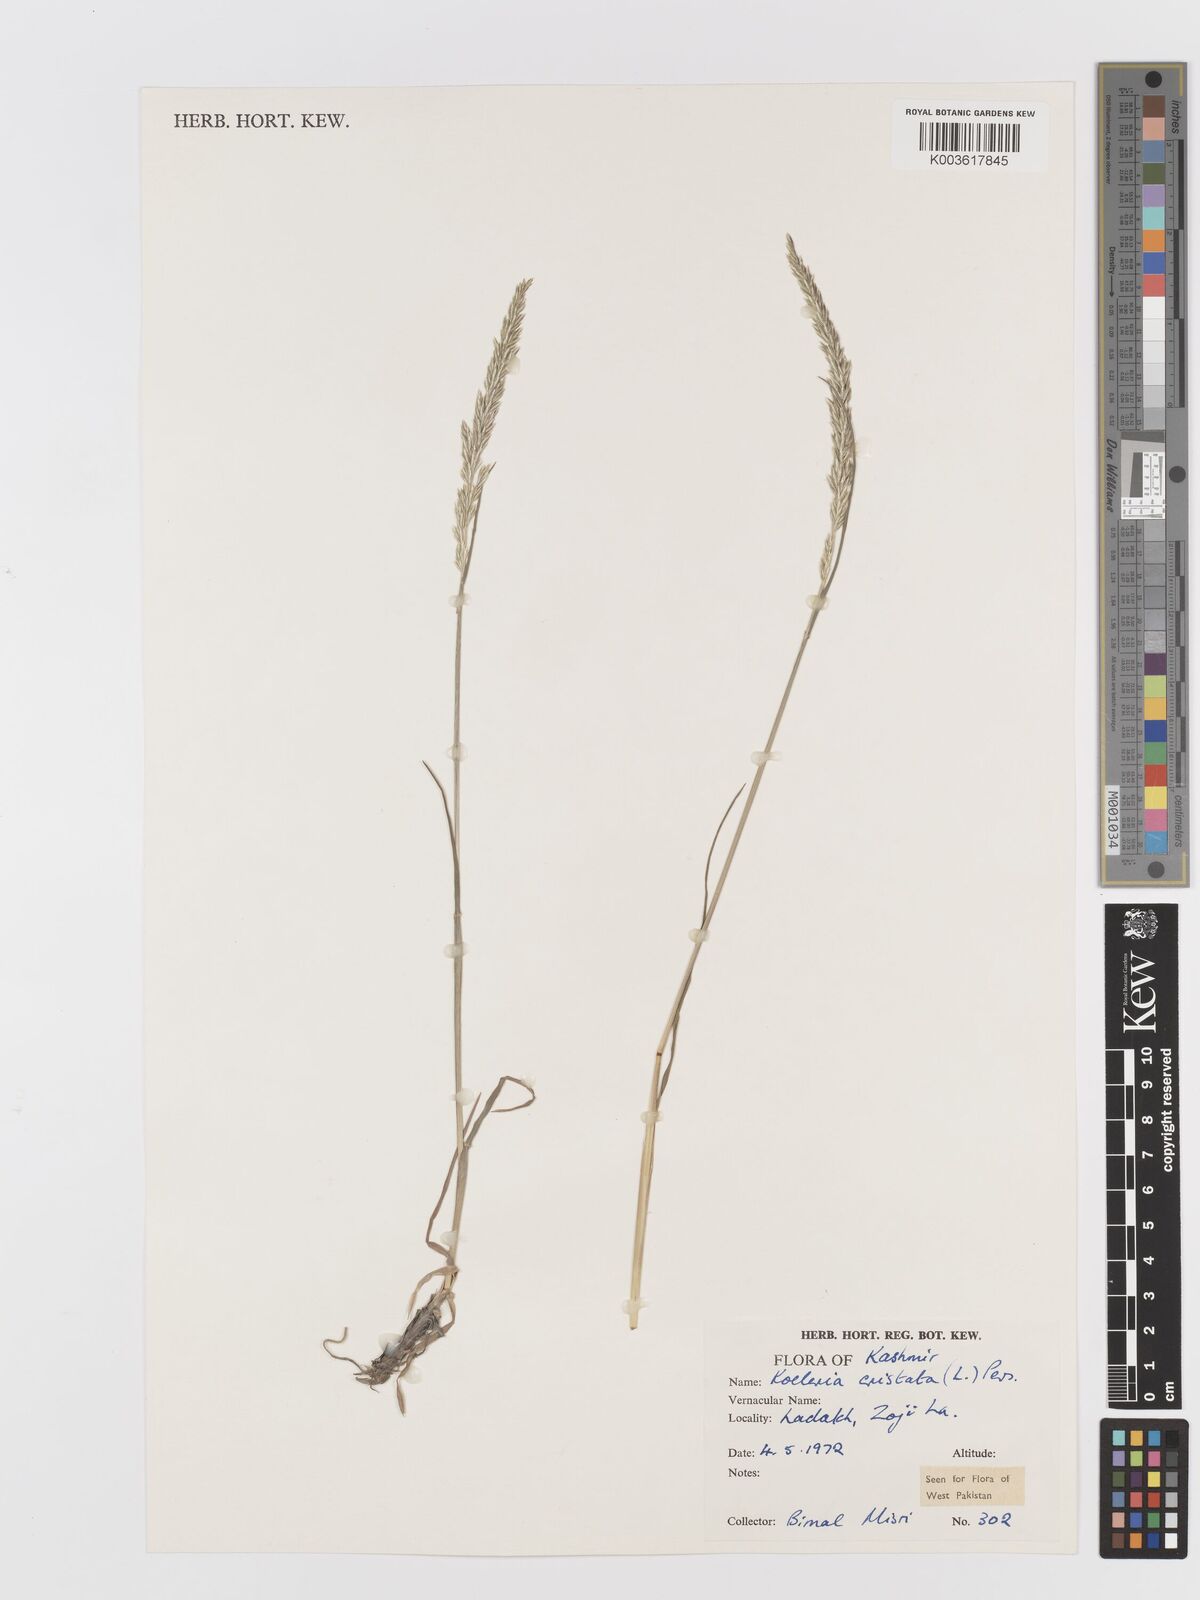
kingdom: Plantae
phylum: Tracheophyta
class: Liliopsida
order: Poales
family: Poaceae
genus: Koeleria
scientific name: Koeleria macrantha
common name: Crested hair-grass
